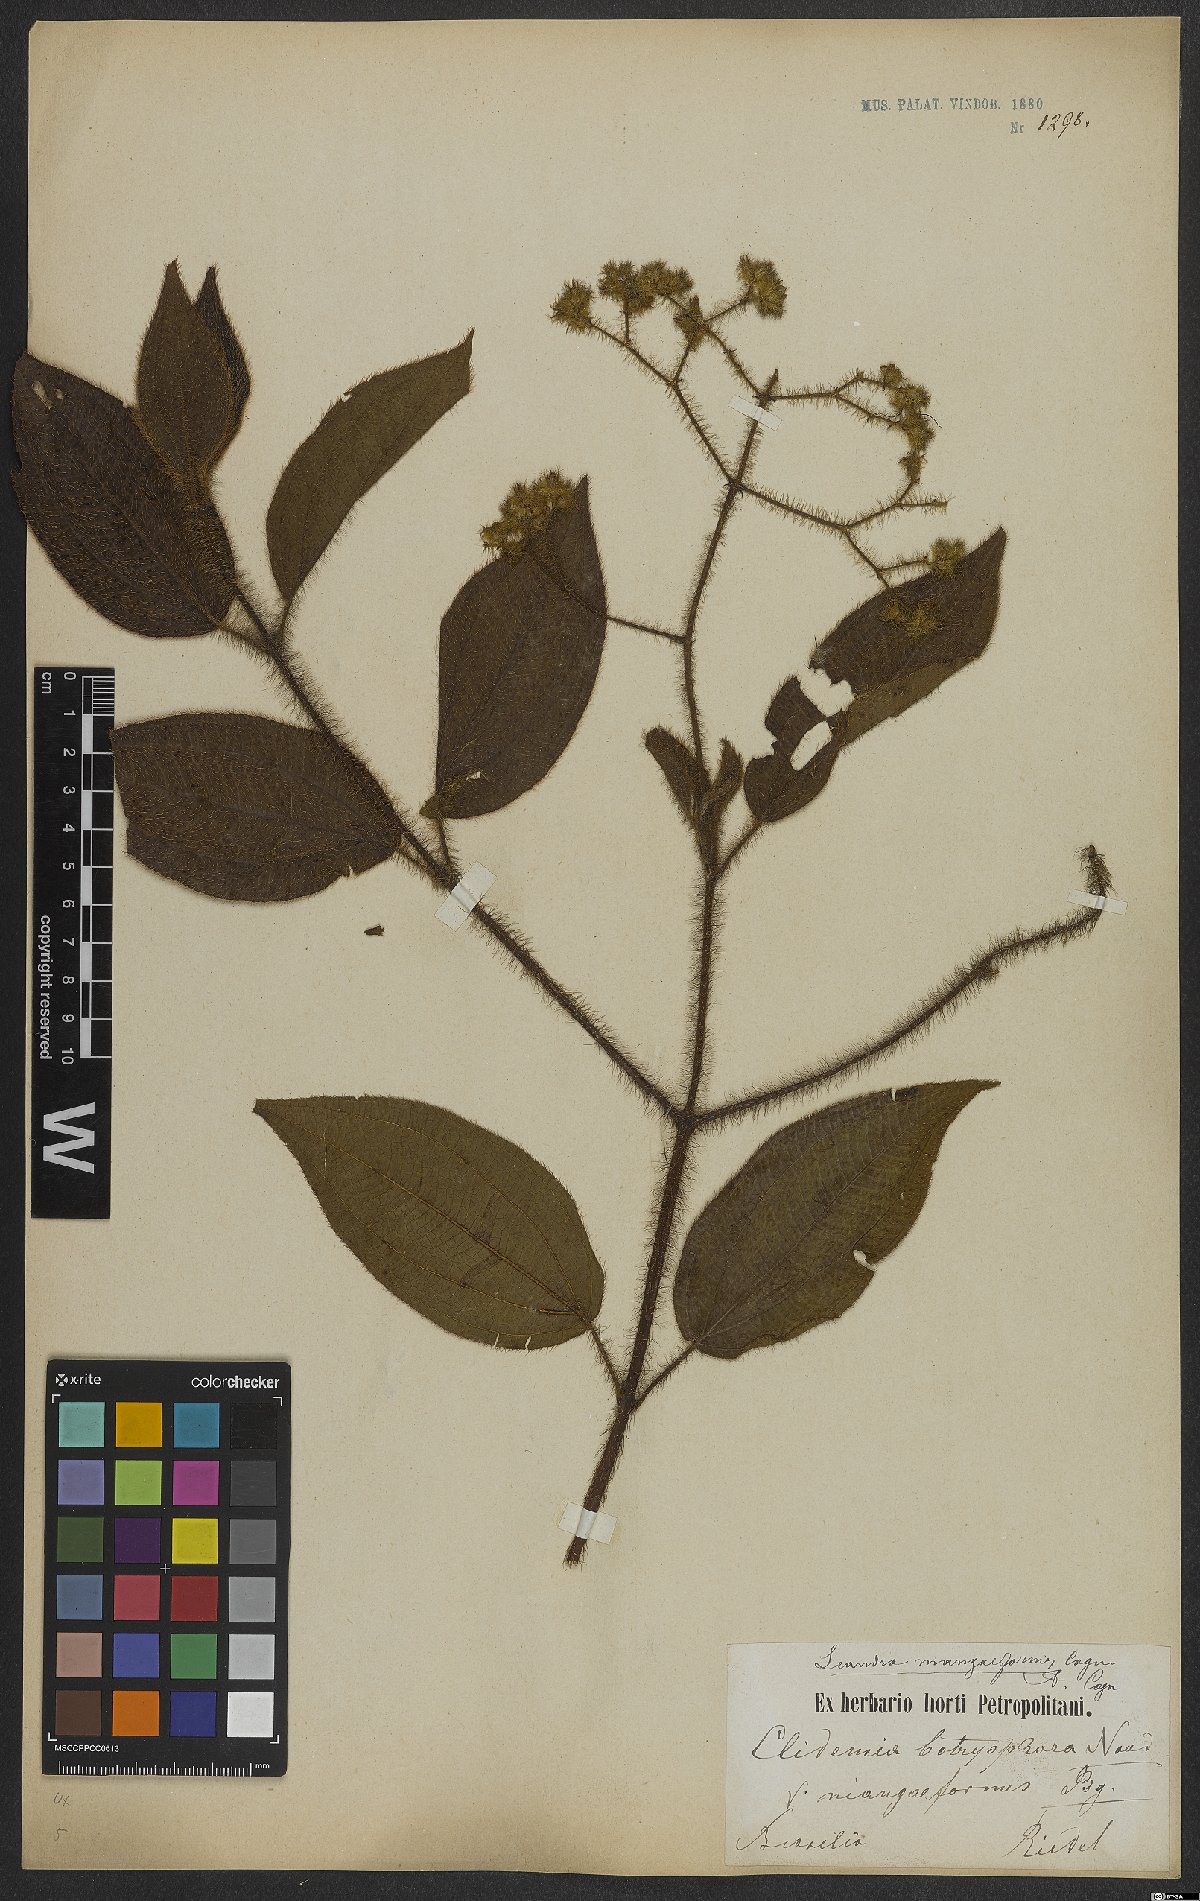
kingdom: Plantae
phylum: Tracheophyta
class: Magnoliopsida
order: Myrtales
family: Melastomataceae
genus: Miconia
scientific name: Miconia niangaeformis
